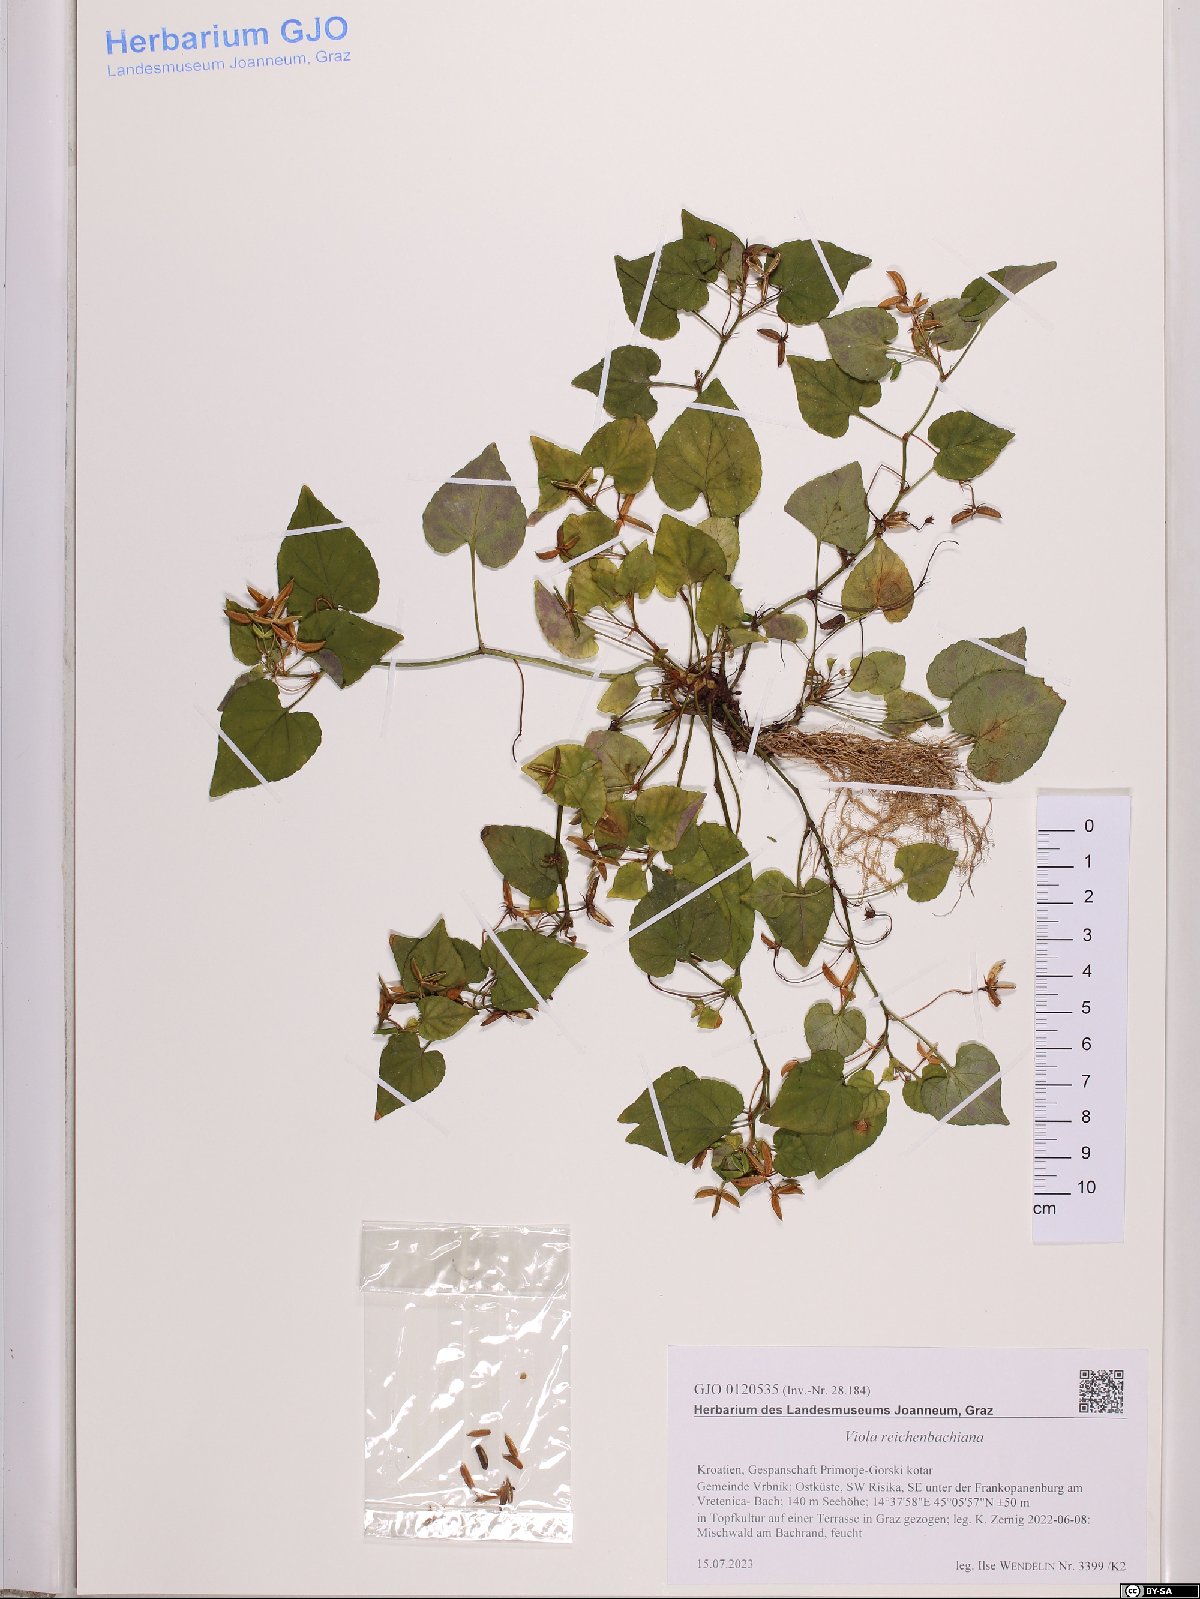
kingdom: Plantae
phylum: Tracheophyta
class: Magnoliopsida
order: Malpighiales
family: Violaceae
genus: Viola
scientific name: Viola reichenbachiana
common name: Early dog-violet
